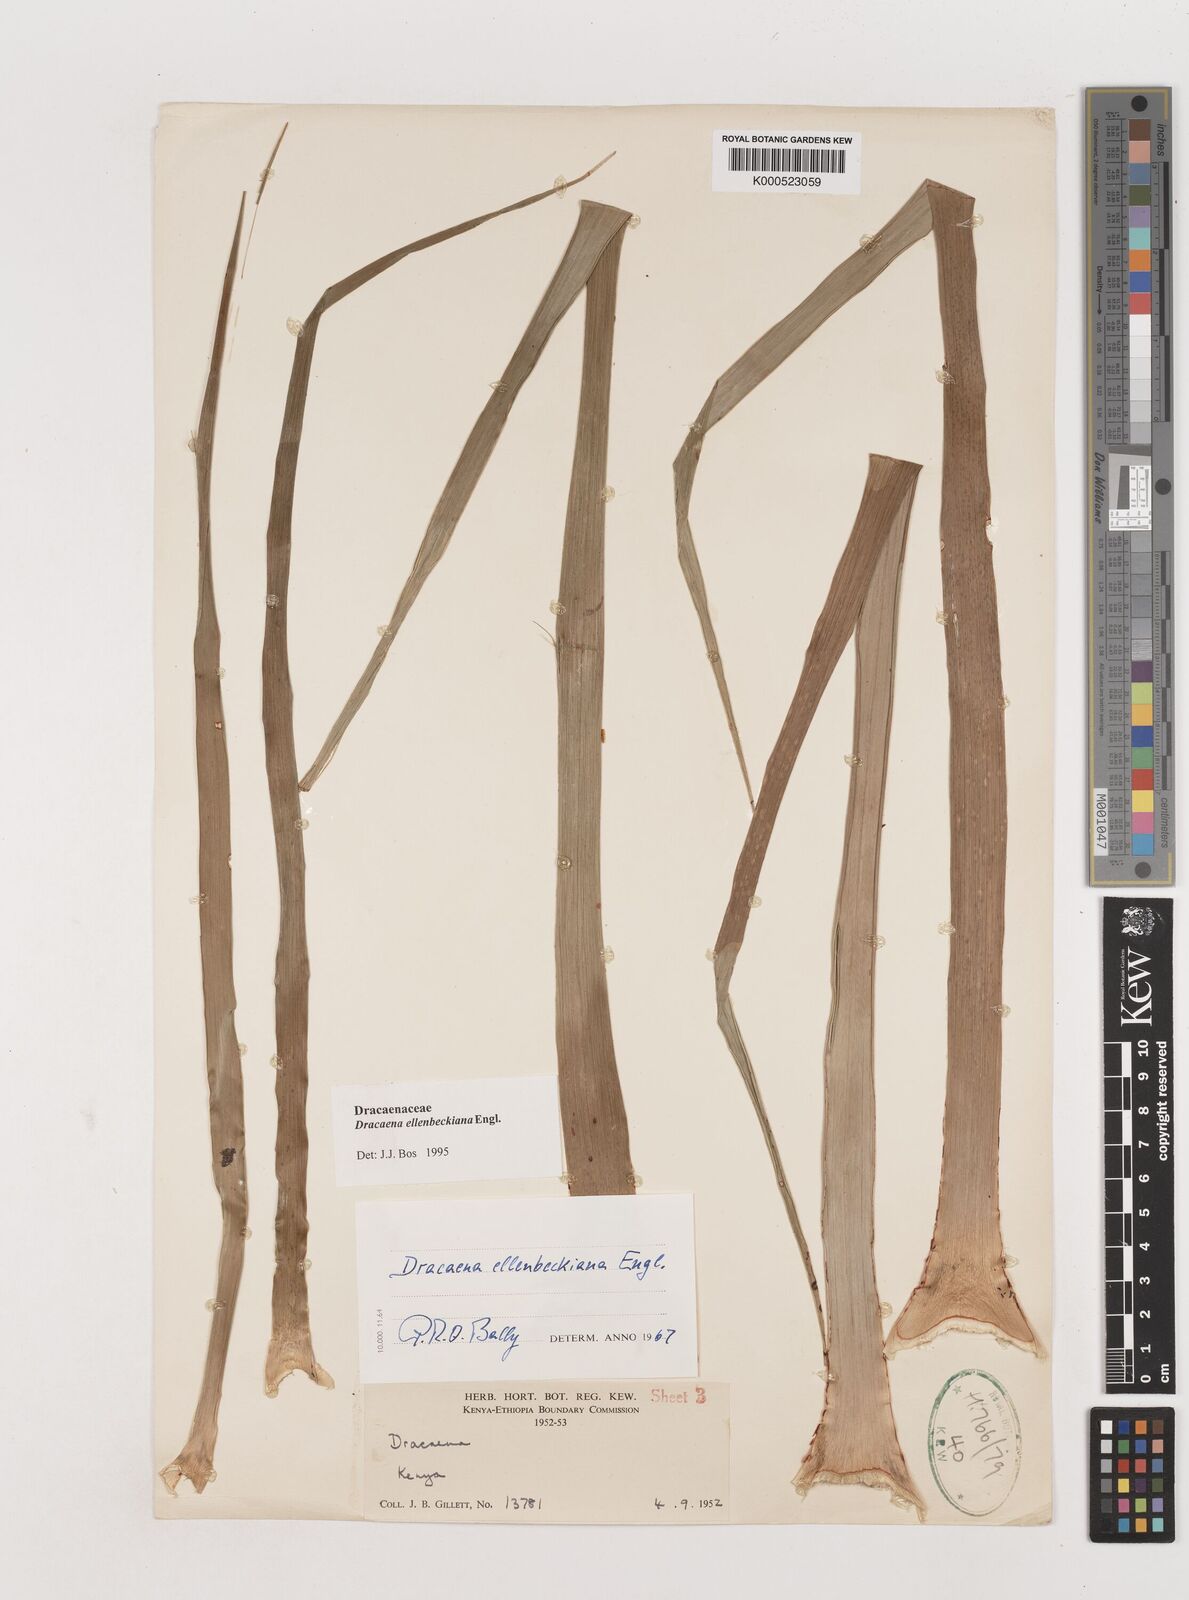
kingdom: Plantae
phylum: Tracheophyta
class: Liliopsida
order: Asparagales
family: Asparagaceae
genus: Dracaena
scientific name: Dracaena ellenbeckiana
